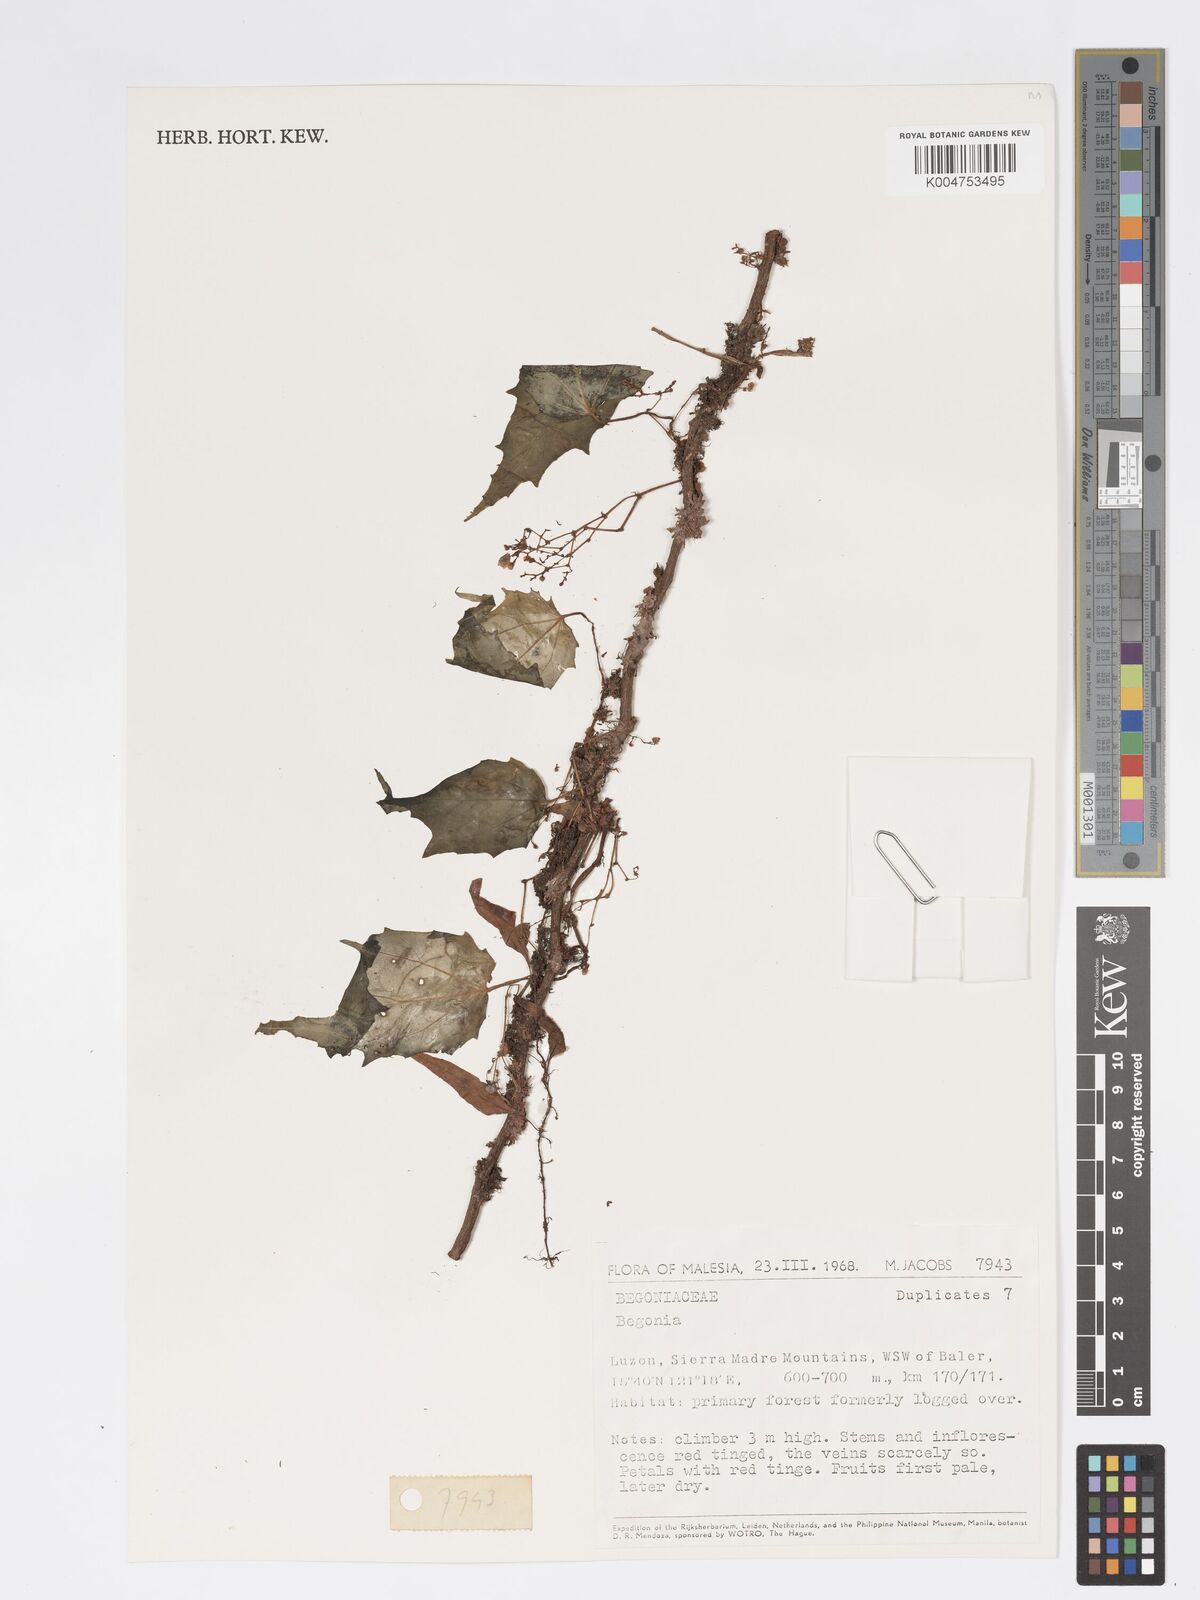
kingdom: Plantae
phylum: Tracheophyta
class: Magnoliopsida
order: Cucurbitales
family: Begoniaceae
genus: Begonia
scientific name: Begonia
